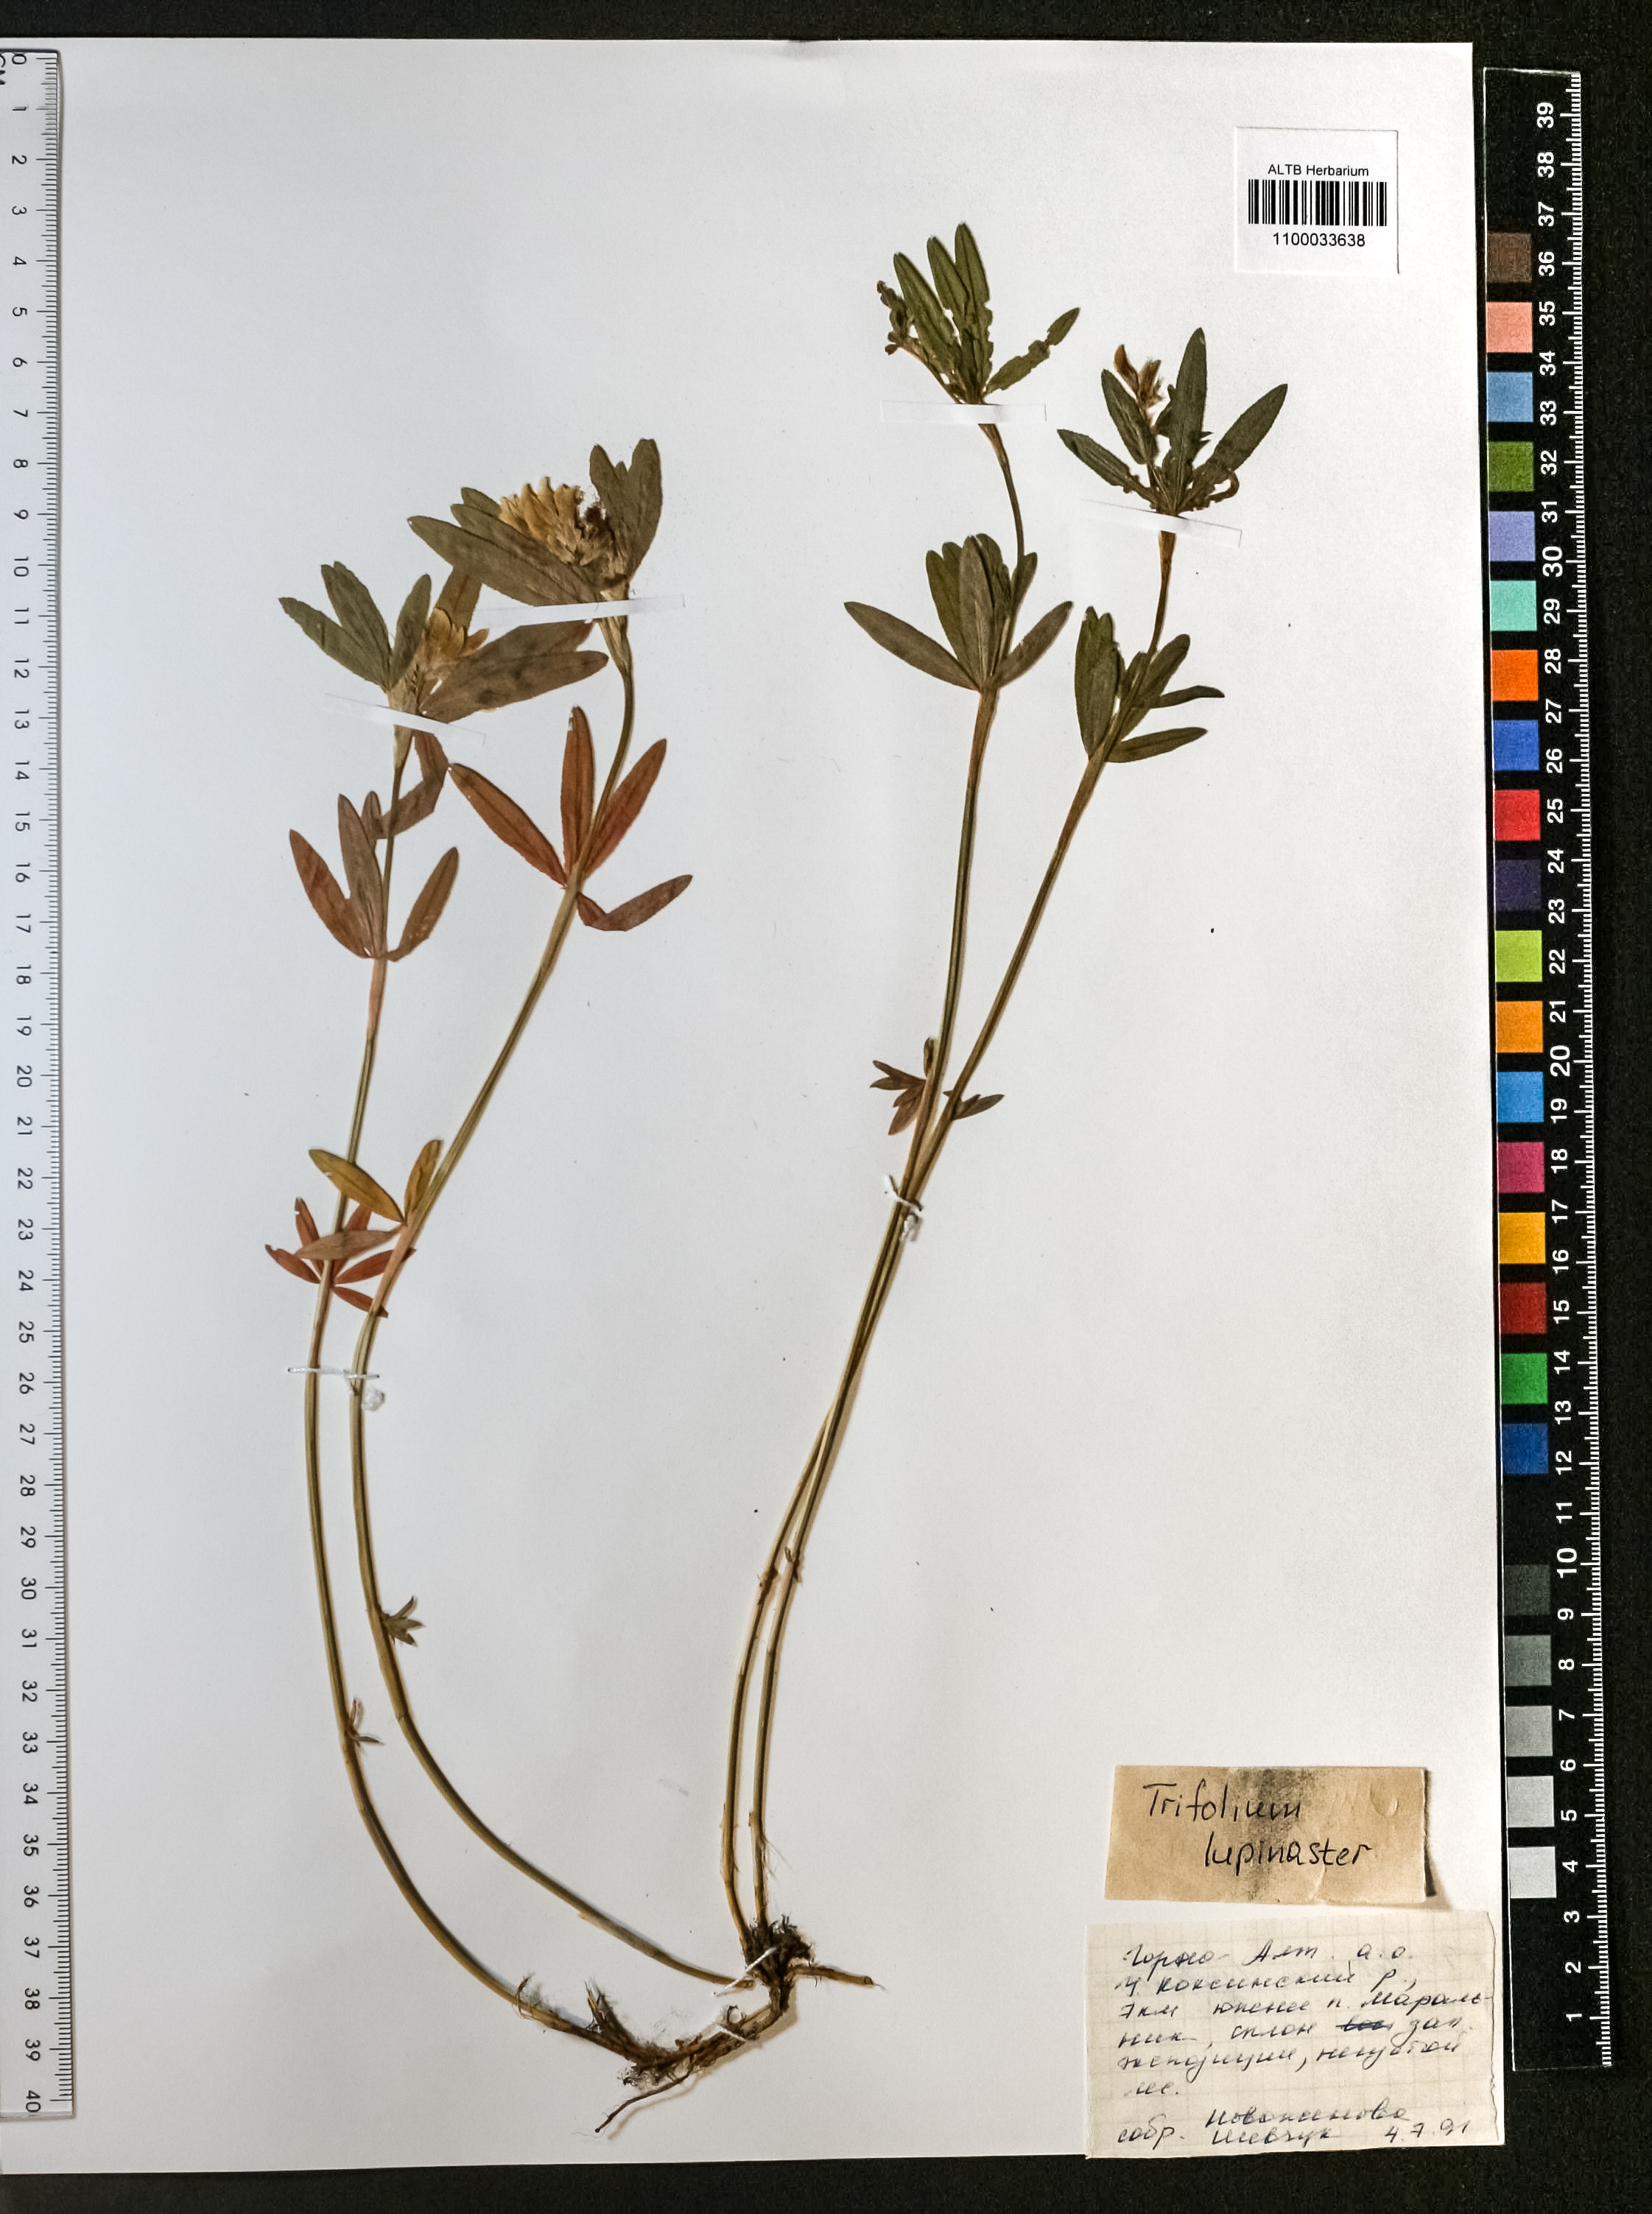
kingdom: Plantae
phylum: Tracheophyta
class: Magnoliopsida
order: Fabales
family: Fabaceae
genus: Trifolium
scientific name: Trifolium lupinaster
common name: Lupine clover
